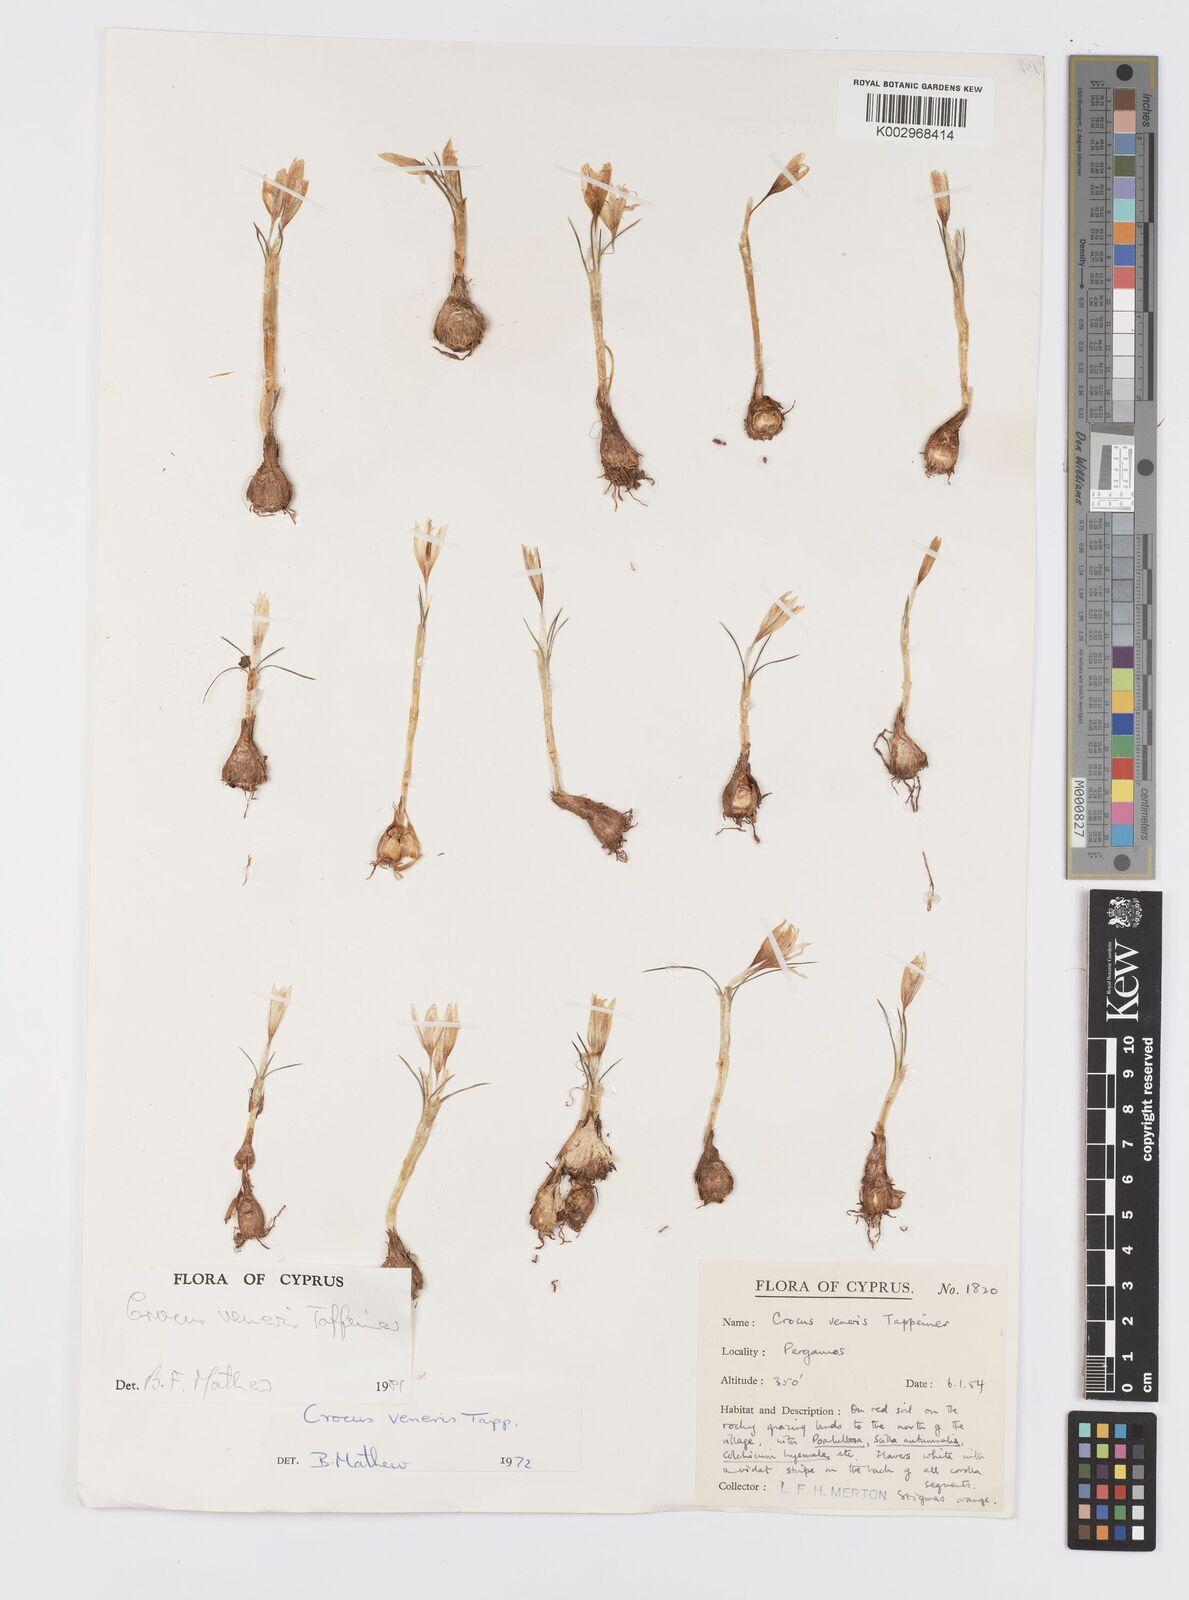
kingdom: Plantae
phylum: Tracheophyta
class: Liliopsida
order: Asparagales
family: Iridaceae
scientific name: Iridaceae
